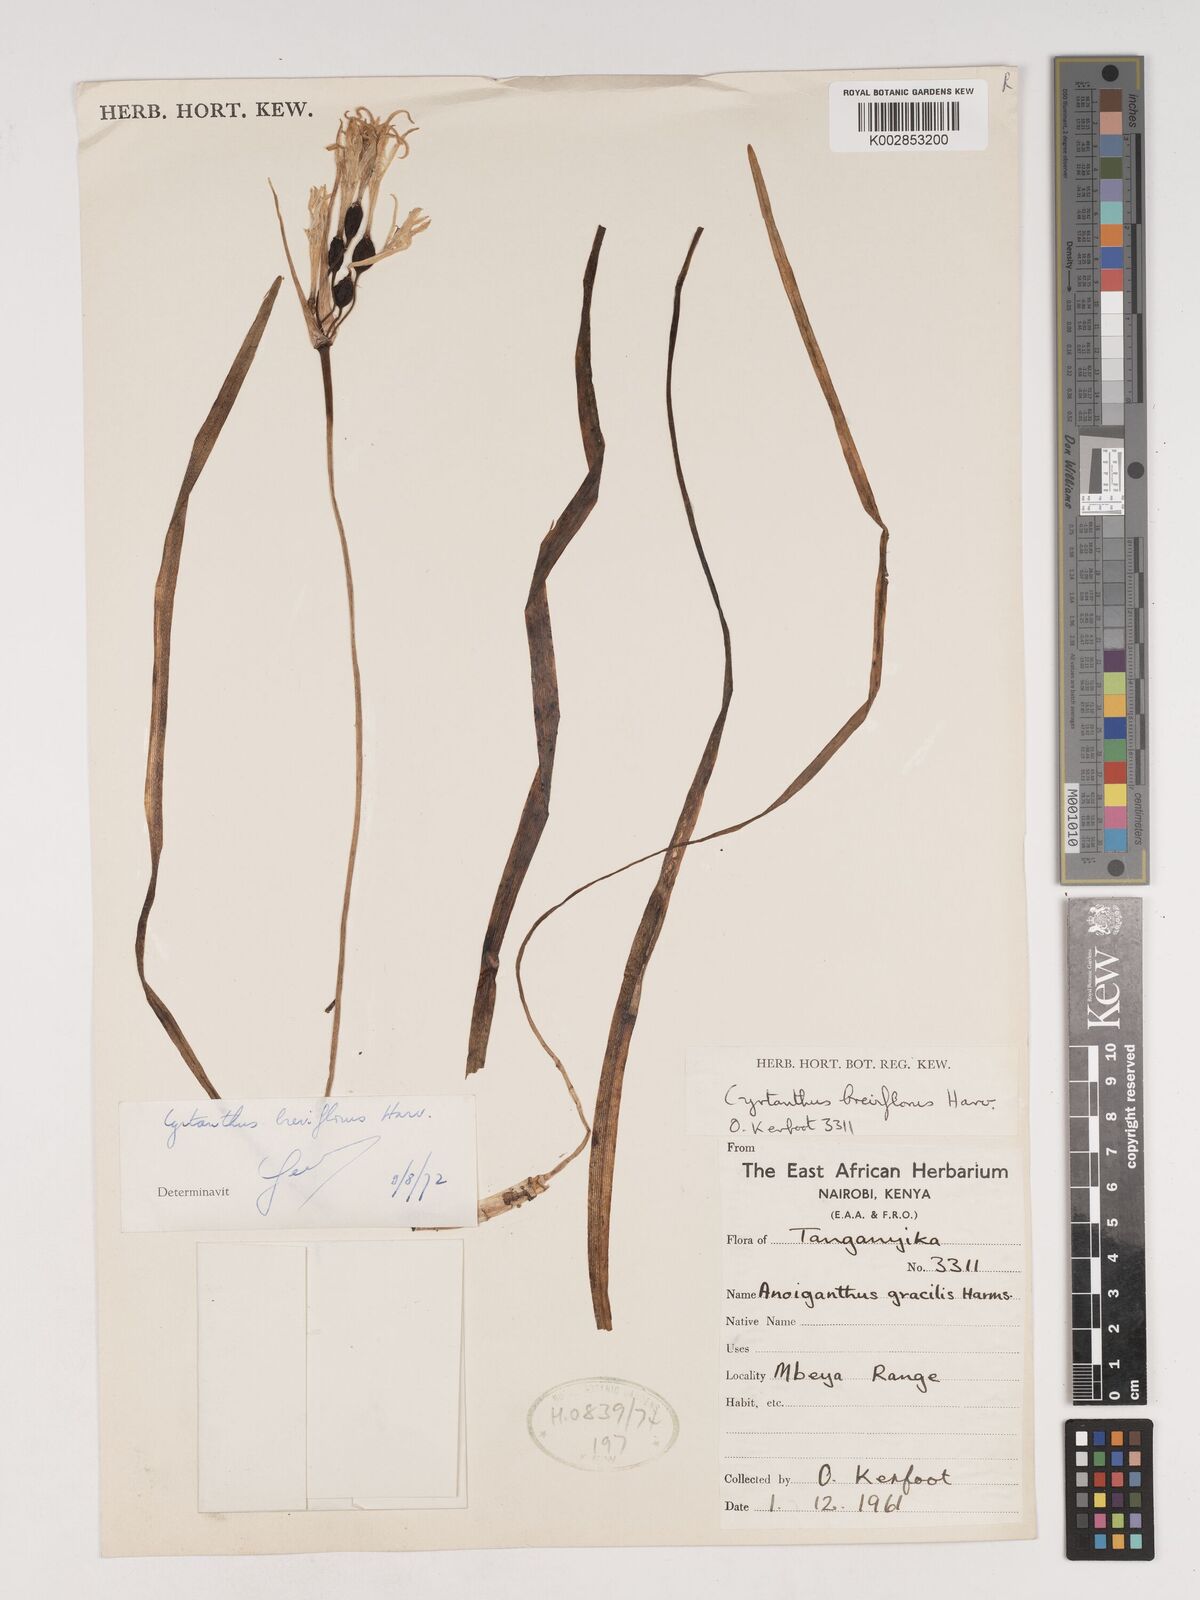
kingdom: Plantae
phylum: Tracheophyta
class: Liliopsida
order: Asparagales
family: Amaryllidaceae
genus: Cyrtanthus
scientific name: Cyrtanthus breviflorus
